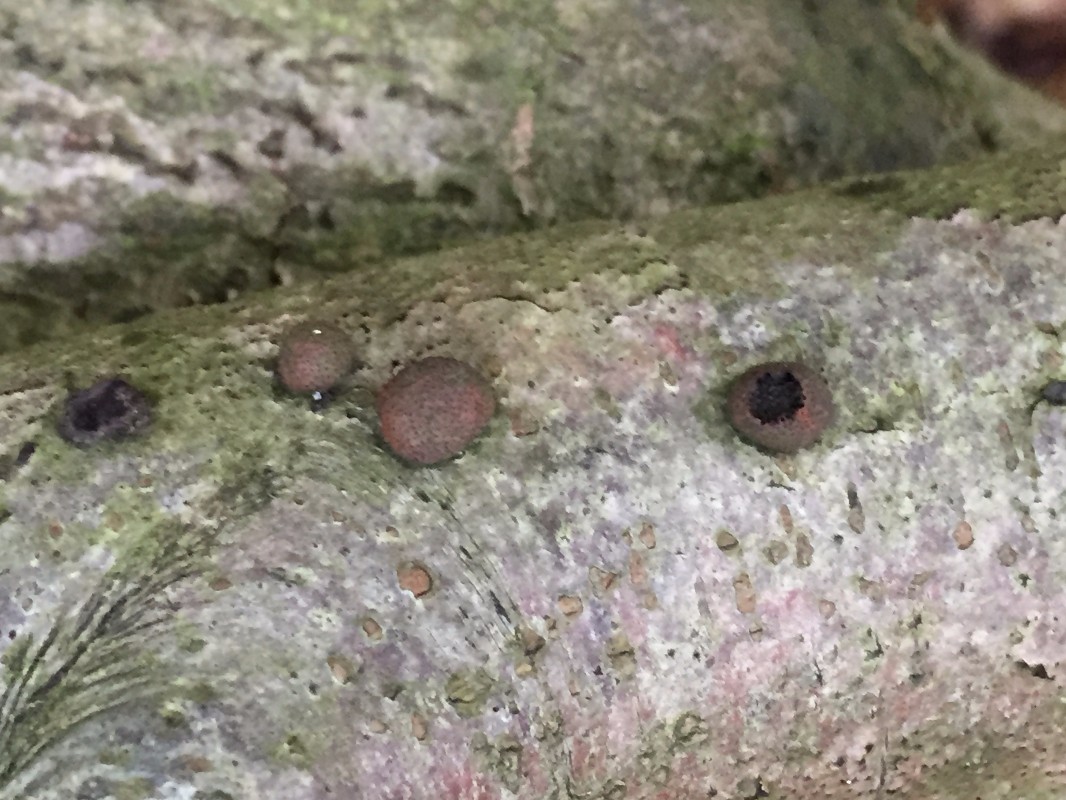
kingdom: Fungi
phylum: Ascomycota
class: Sordariomycetes
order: Xylariales
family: Hypoxylaceae
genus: Hypoxylon
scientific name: Hypoxylon fragiforme
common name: kuljordbær
